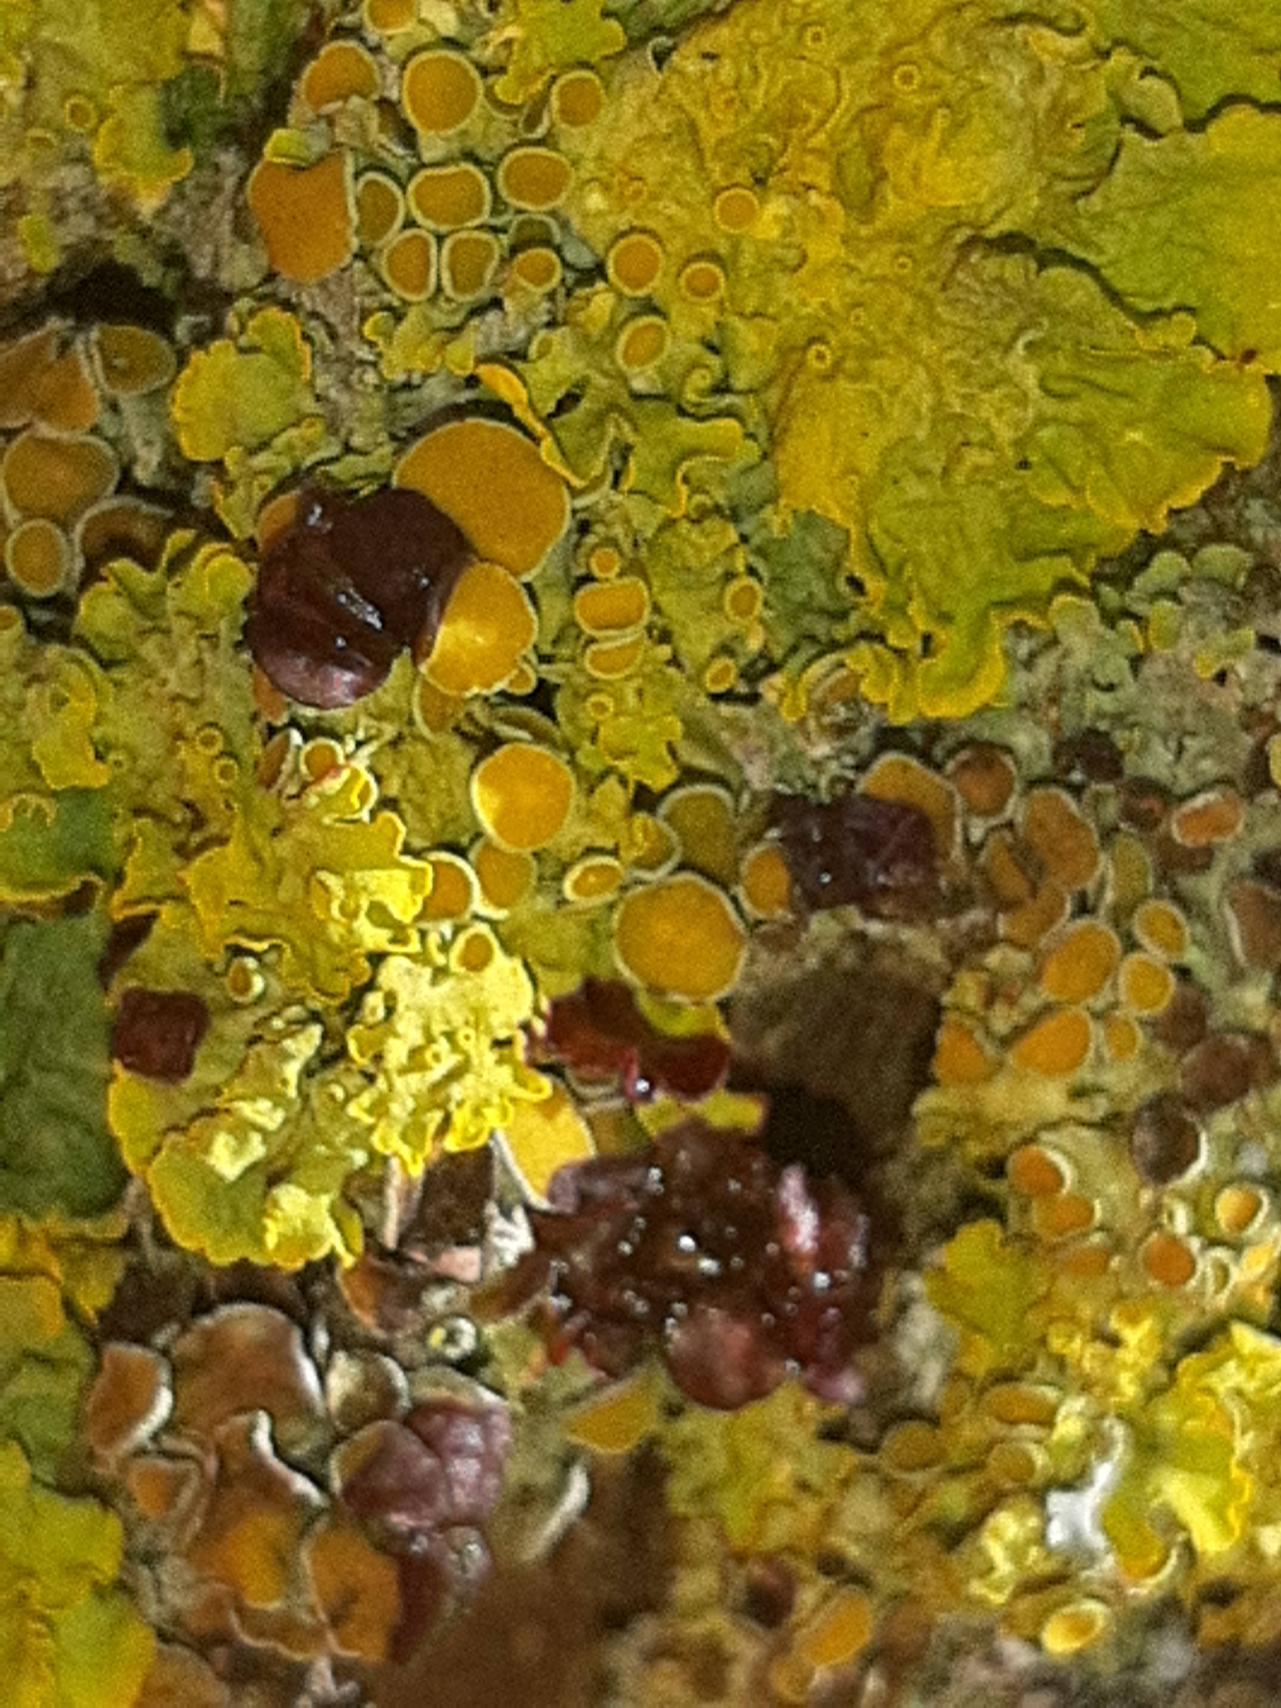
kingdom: Fungi
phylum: Ascomycota
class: Lecanoromycetes
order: Teloschistales
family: Teloschistaceae
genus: Xanthoria
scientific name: Xanthoria parietina
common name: Almindelig væggelav
